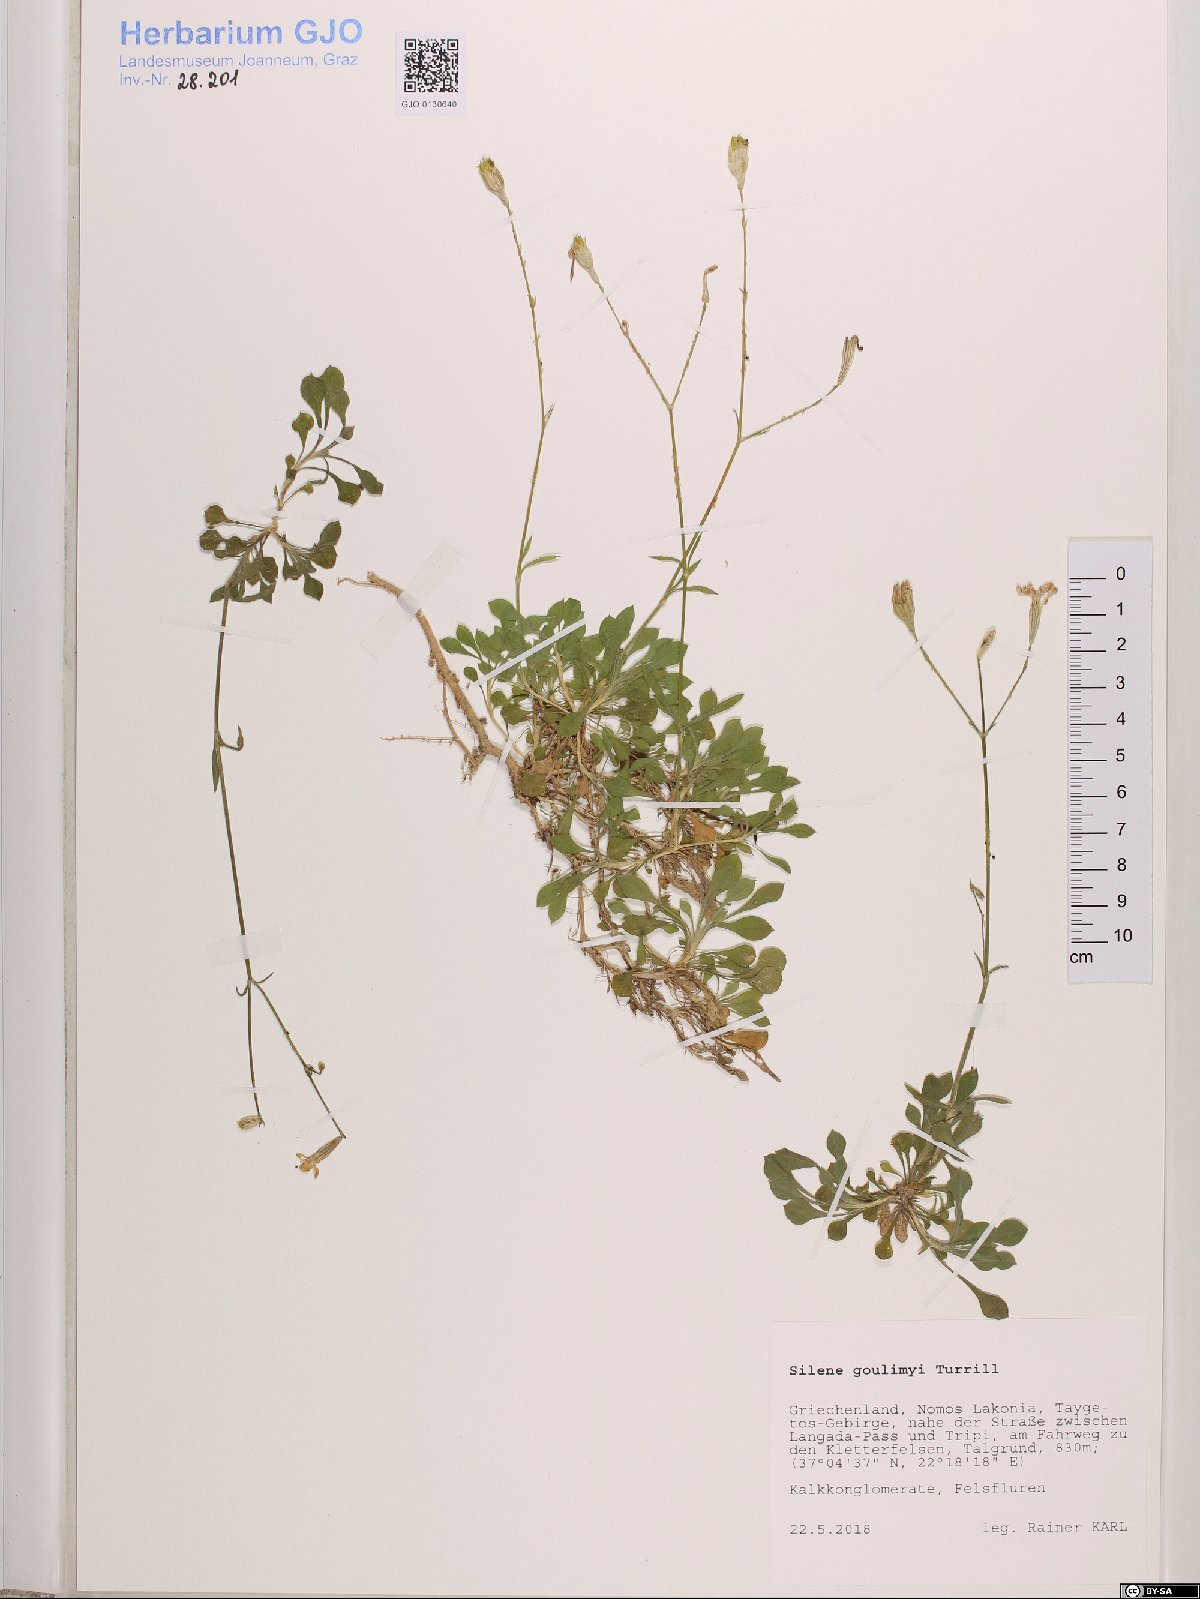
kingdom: Plantae
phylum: Tracheophyta
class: Magnoliopsida
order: Caryophyllales
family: Caryophyllaceae
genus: Silene
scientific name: Silene goulimyi
